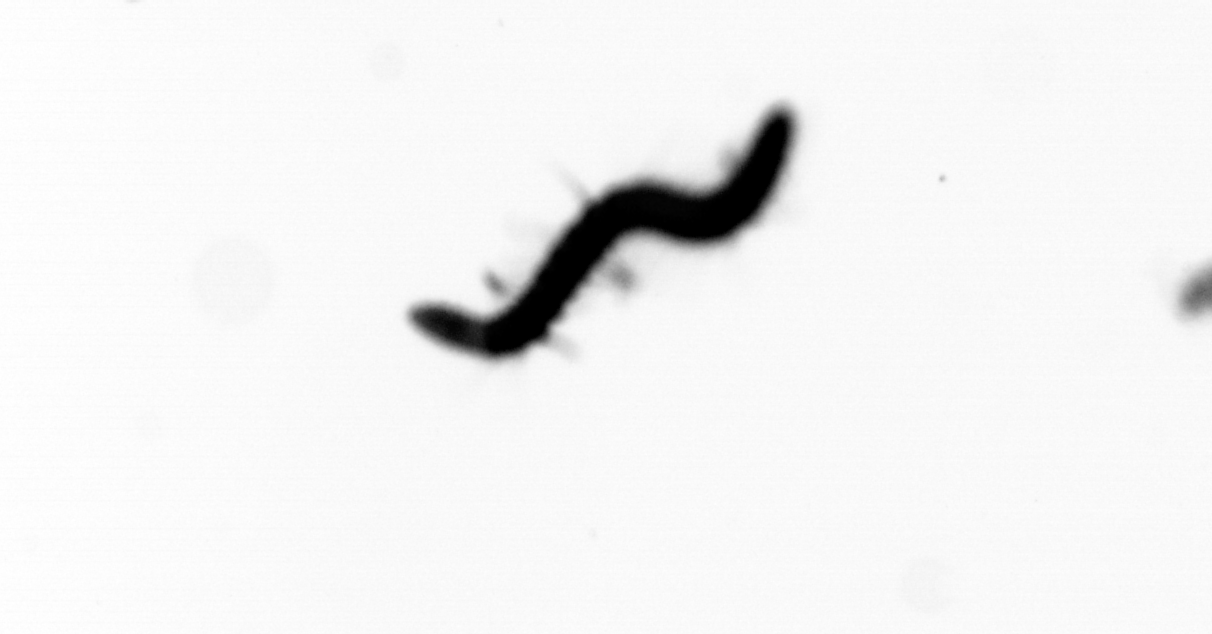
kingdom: Animalia
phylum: Annelida
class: Polychaeta
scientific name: Polychaeta
